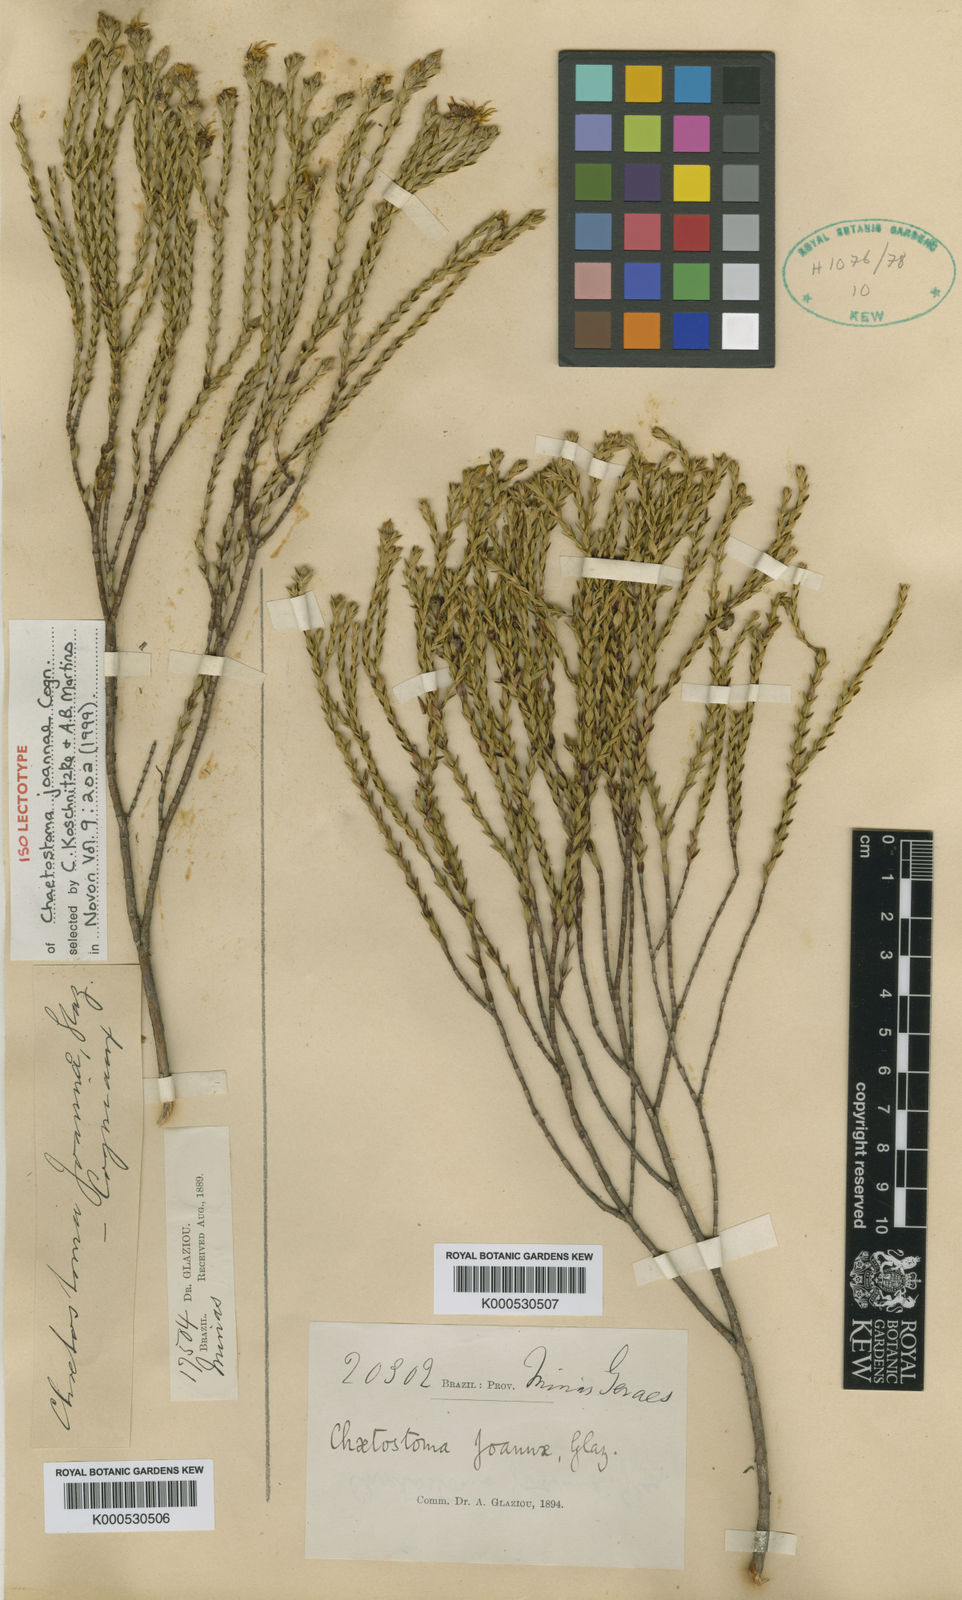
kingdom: Plantae
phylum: Tracheophyta
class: Magnoliopsida
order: Myrtales
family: Melastomataceae
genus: Microlicia
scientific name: Microlicia cupressina
